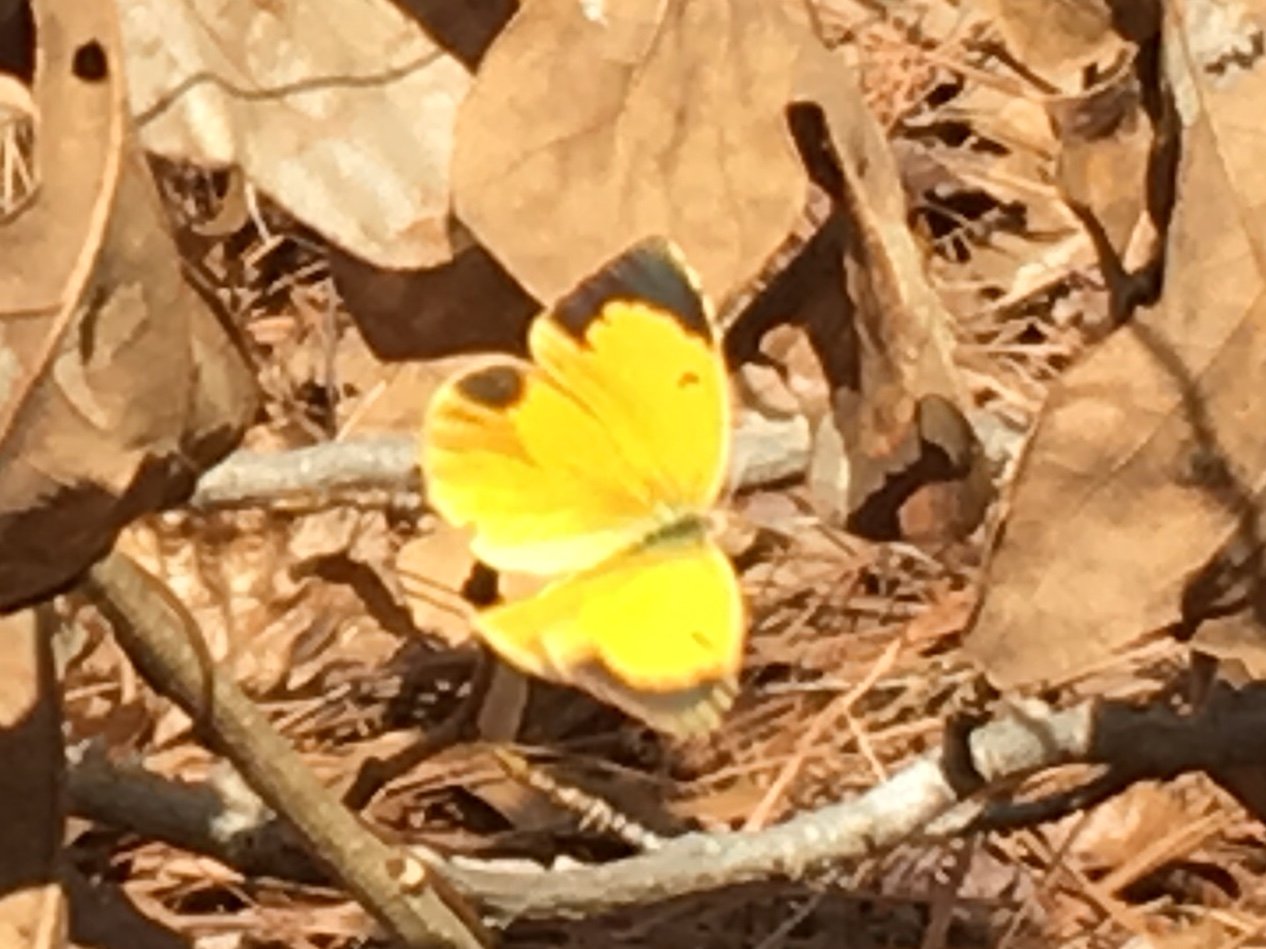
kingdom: Animalia
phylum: Arthropoda
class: Insecta
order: Lepidoptera
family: Pieridae
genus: Abaeis
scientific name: Abaeis nicippe
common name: Sleepy Orange
